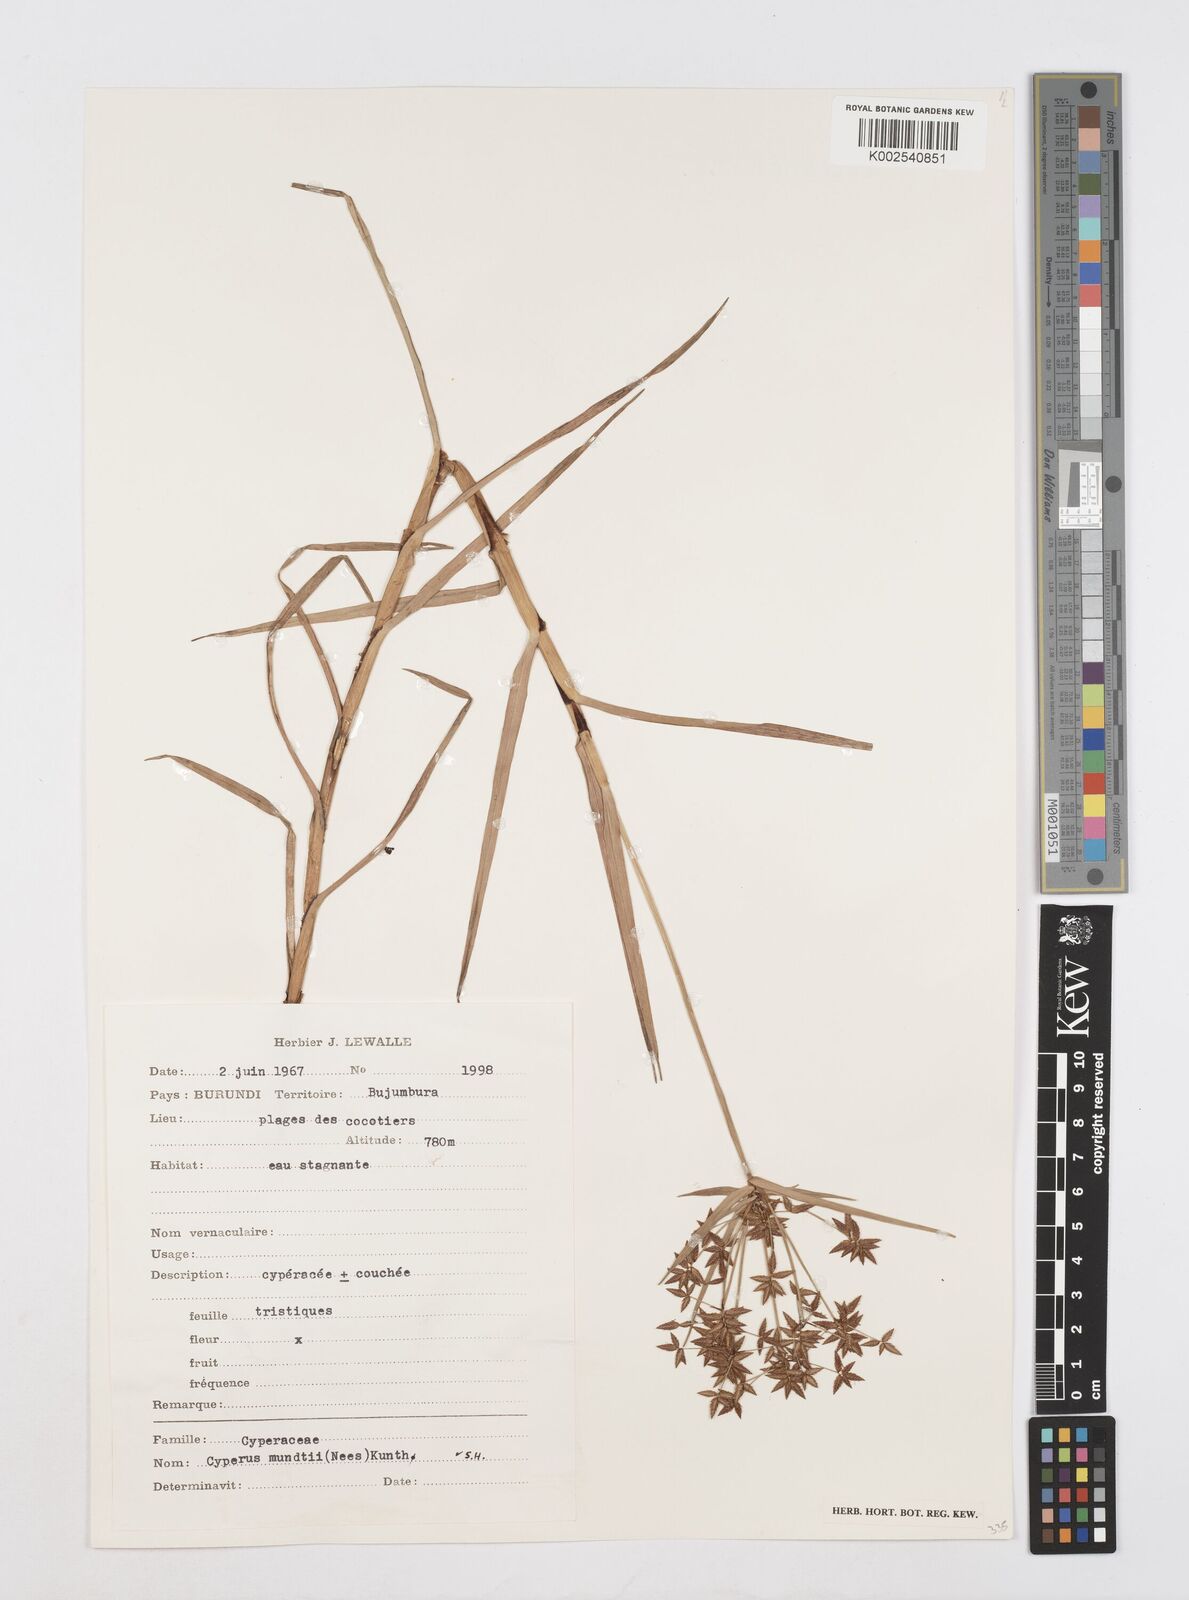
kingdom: Plantae
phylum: Tracheophyta
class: Liliopsida
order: Poales
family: Cyperaceae
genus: Cyperus
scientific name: Cyperus mundii
